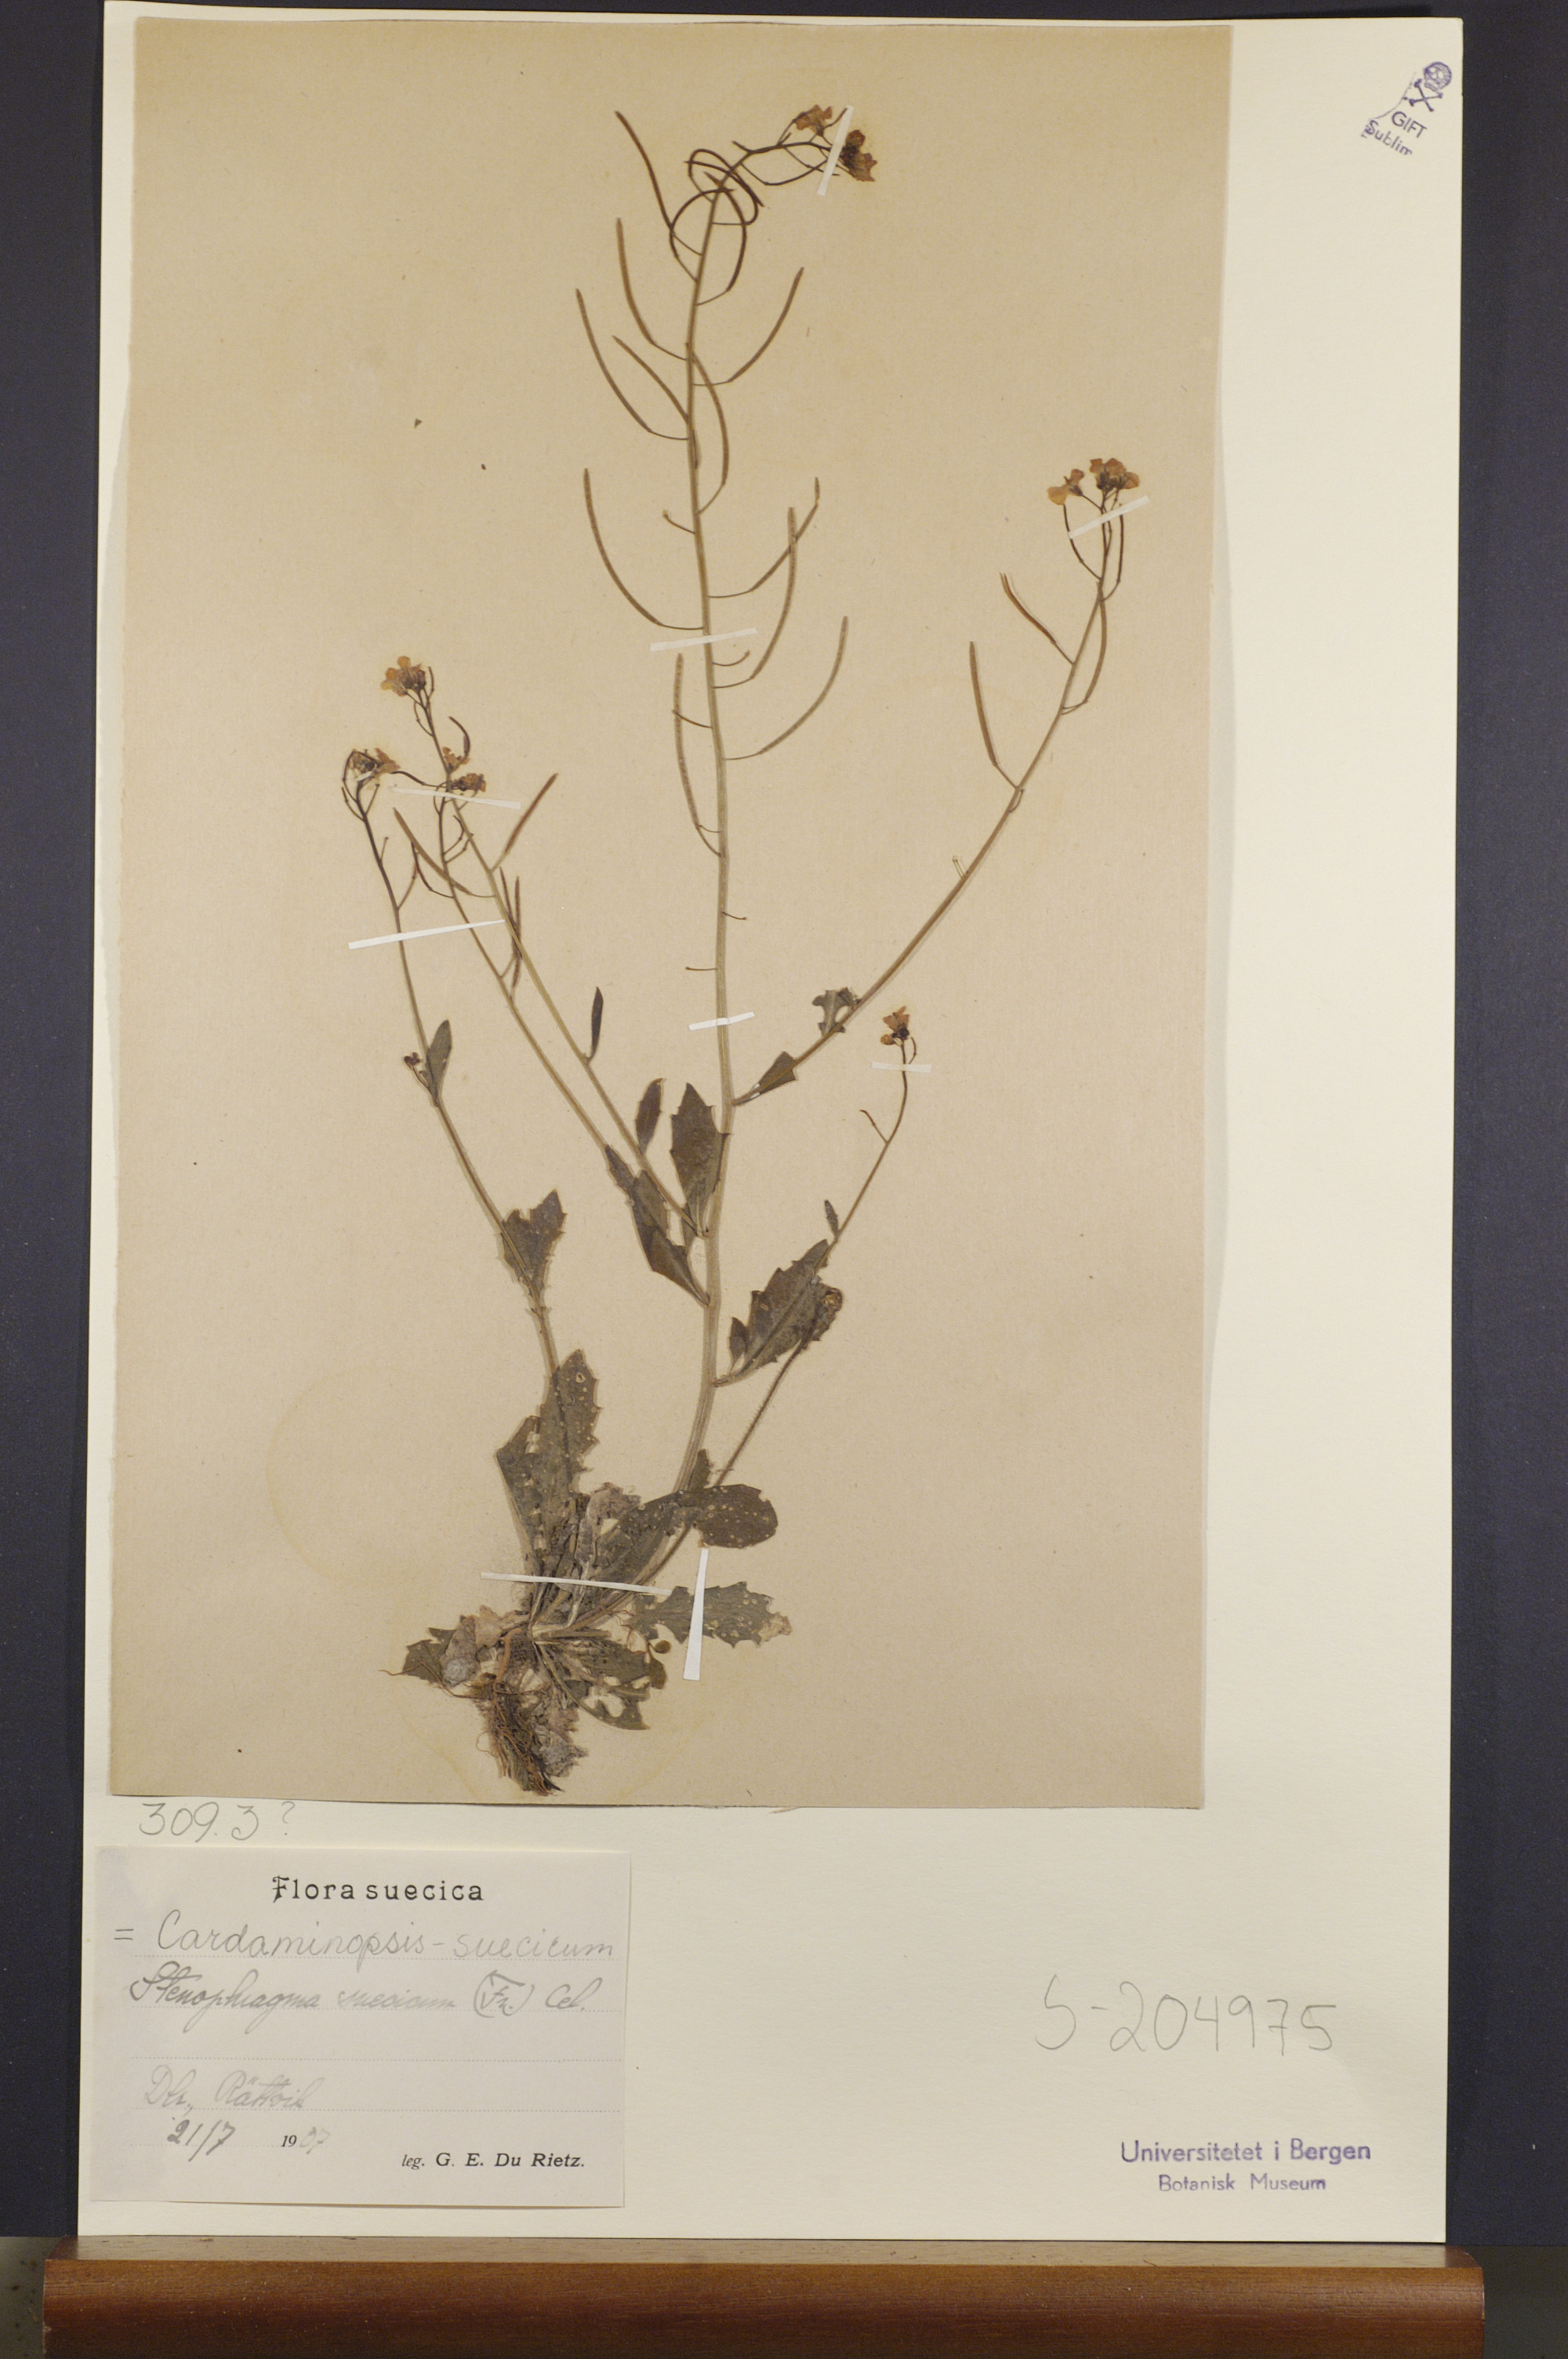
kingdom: Plantae
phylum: Tracheophyta
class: Magnoliopsida
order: Brassicales
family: Brassicaceae
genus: Arabidopsis
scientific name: Arabidopsis suecica
